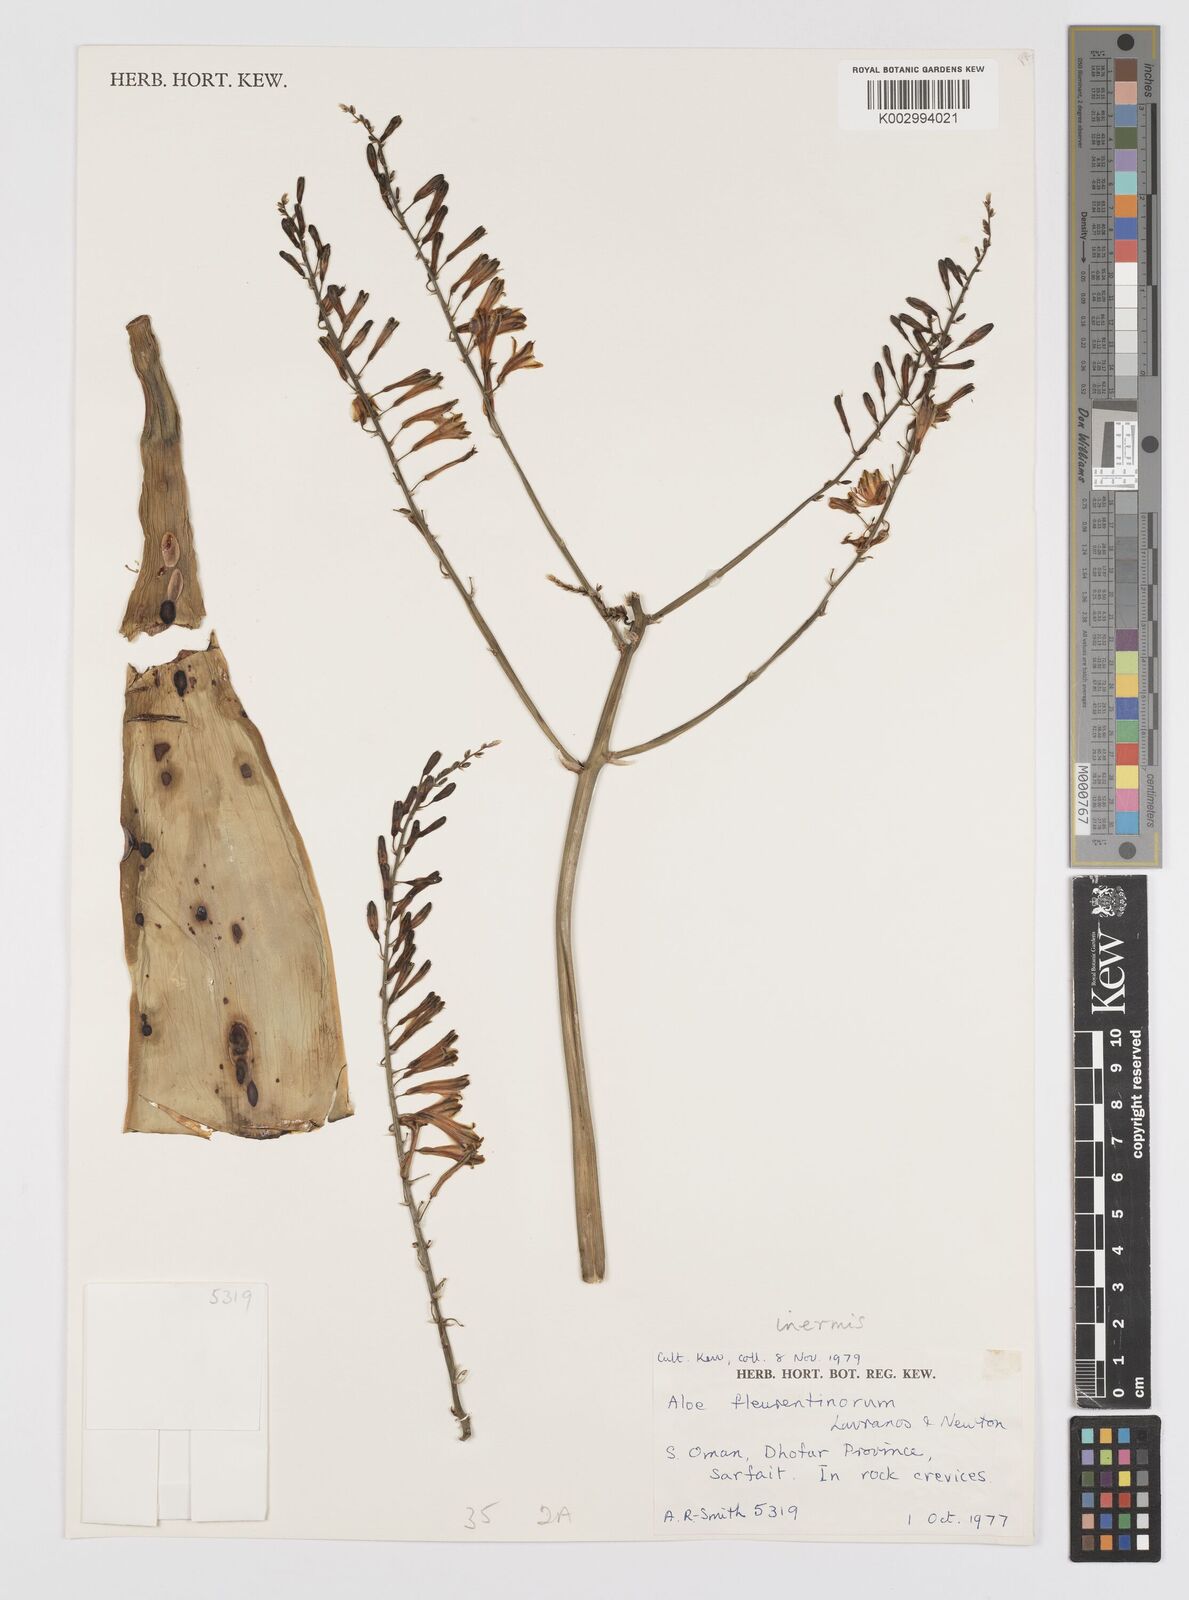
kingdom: Plantae
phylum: Tracheophyta
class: Liliopsida
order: Asparagales
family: Asphodelaceae
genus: Aloe
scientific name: Aloe inermis
